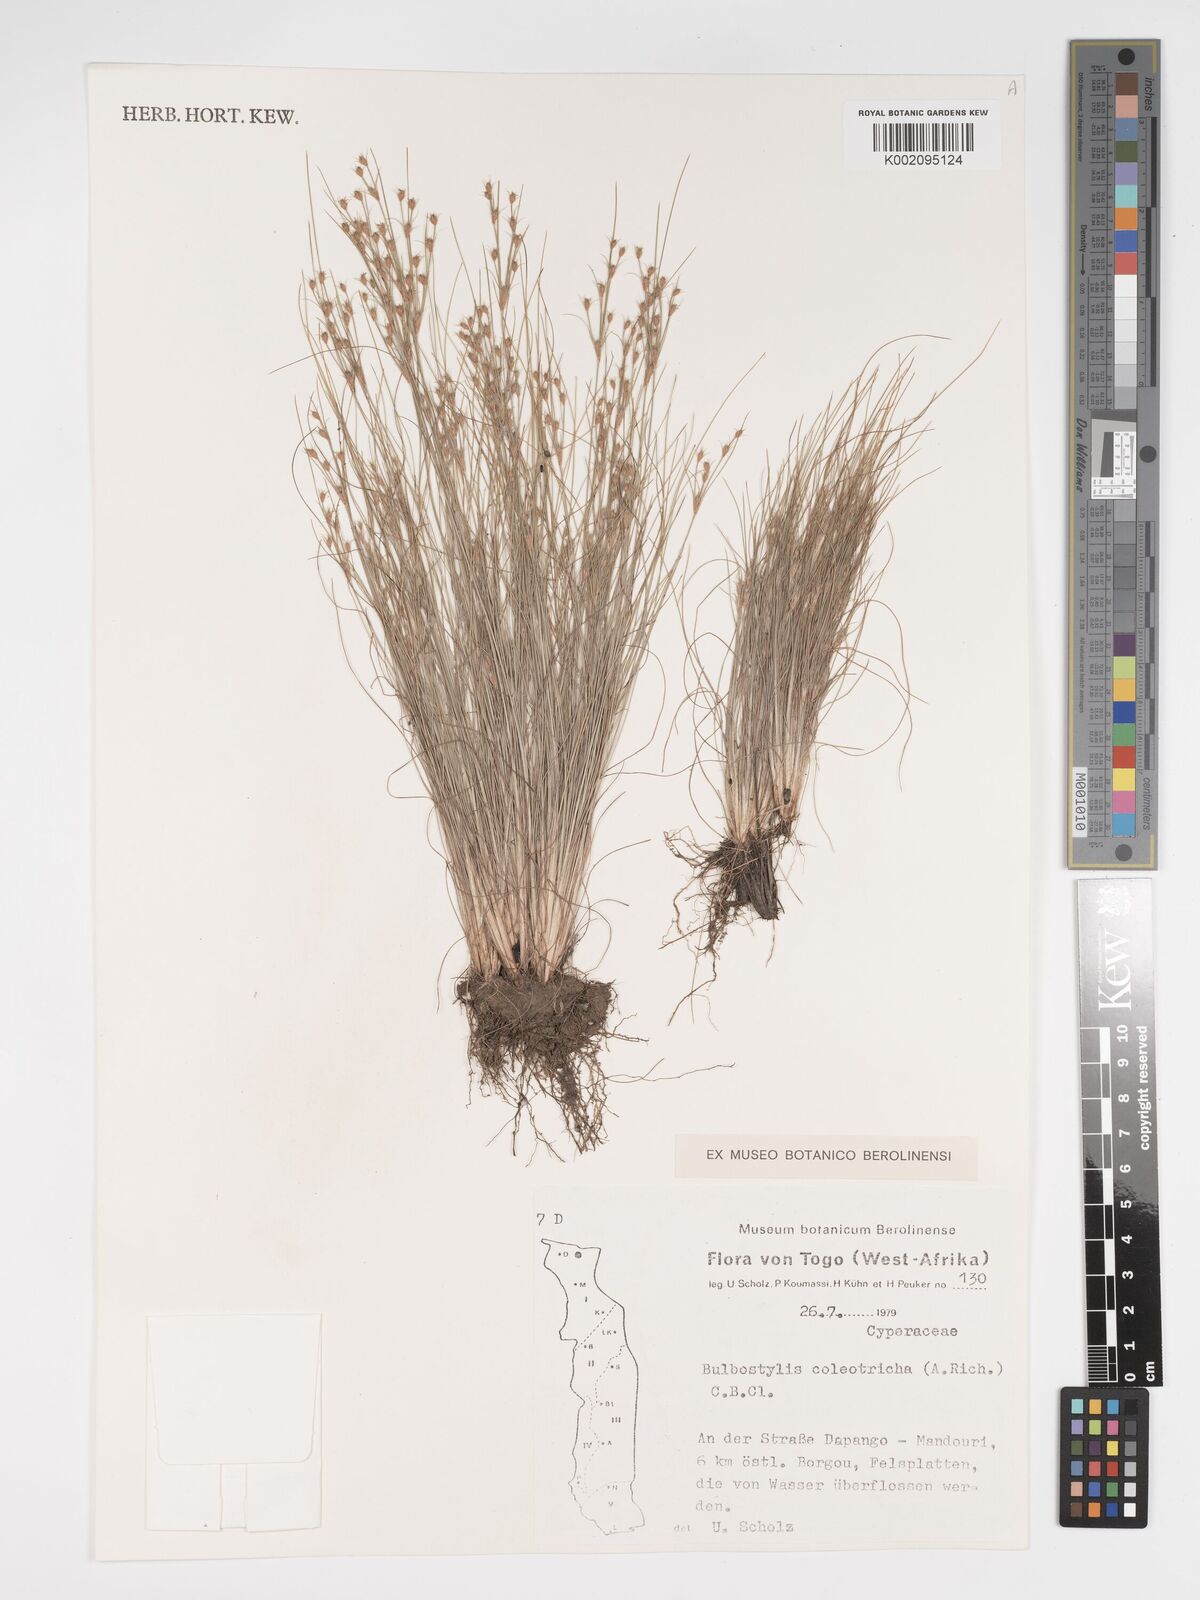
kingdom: Plantae
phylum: Tracheophyta
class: Liliopsida
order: Poales
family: Cyperaceae
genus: Bulbostylis
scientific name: Bulbostylis coleotricha
